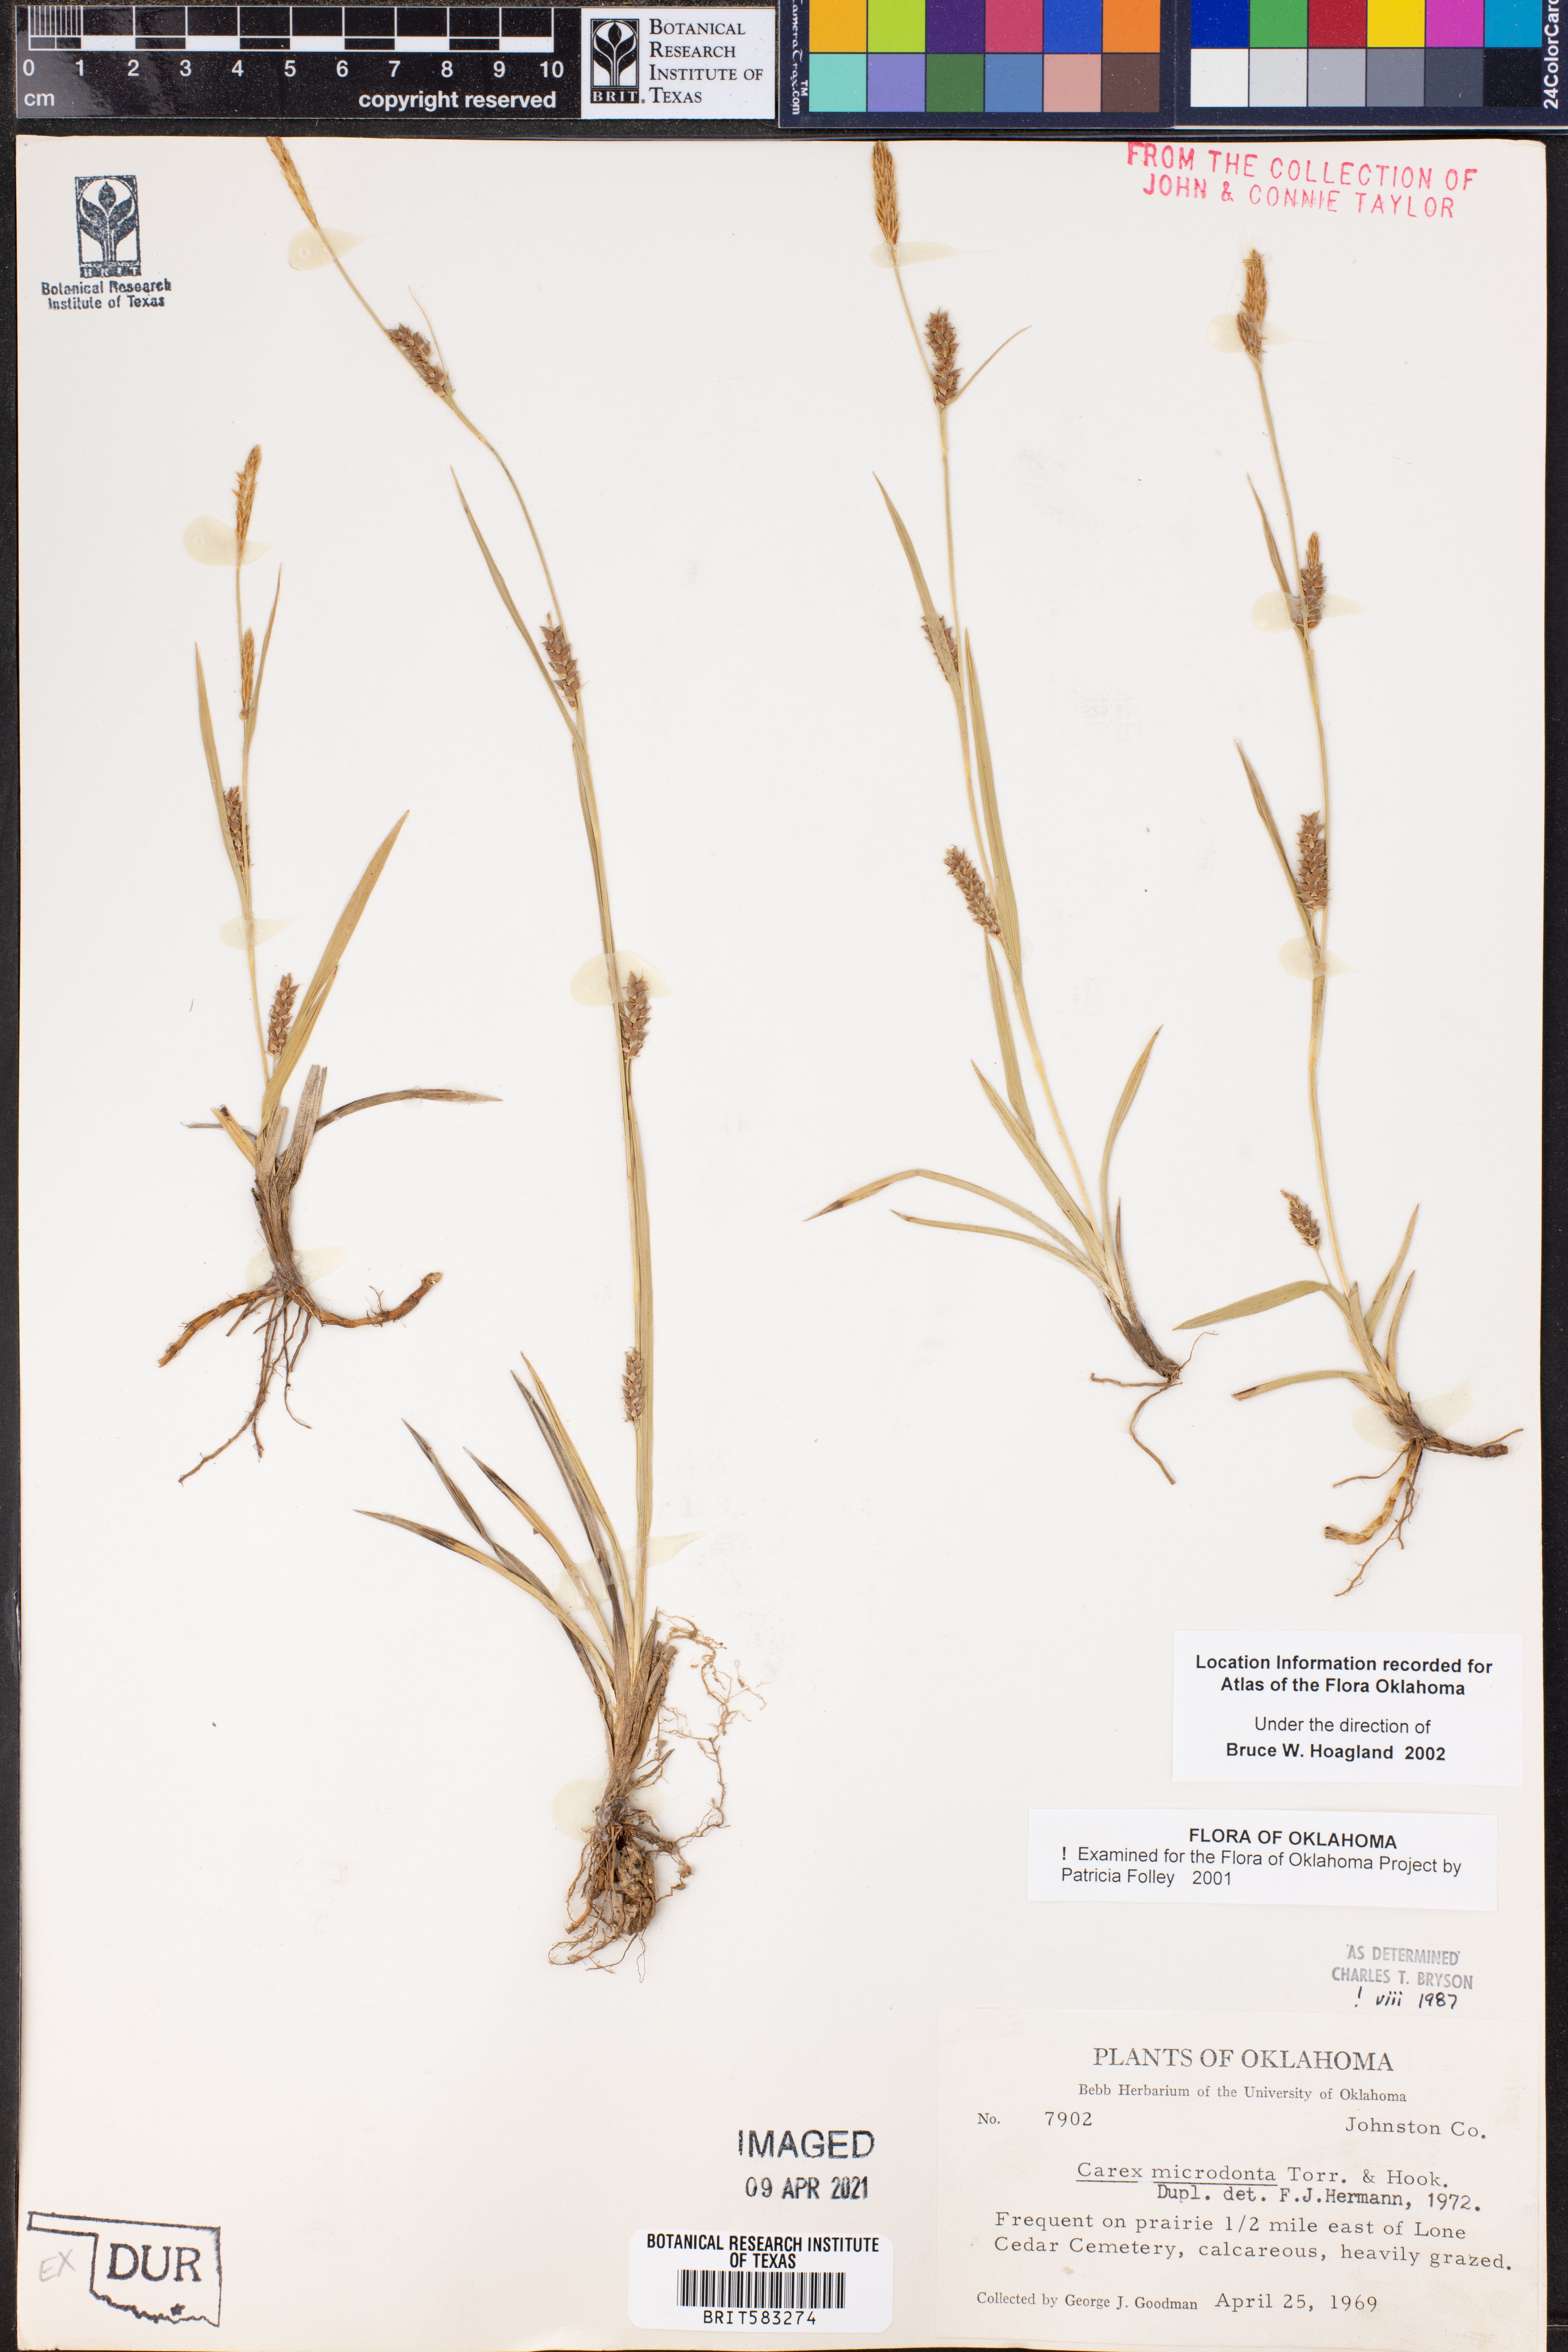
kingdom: Plantae
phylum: Tracheophyta
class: Liliopsida
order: Poales
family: Cyperaceae
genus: Carex
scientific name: Carex microdonta
